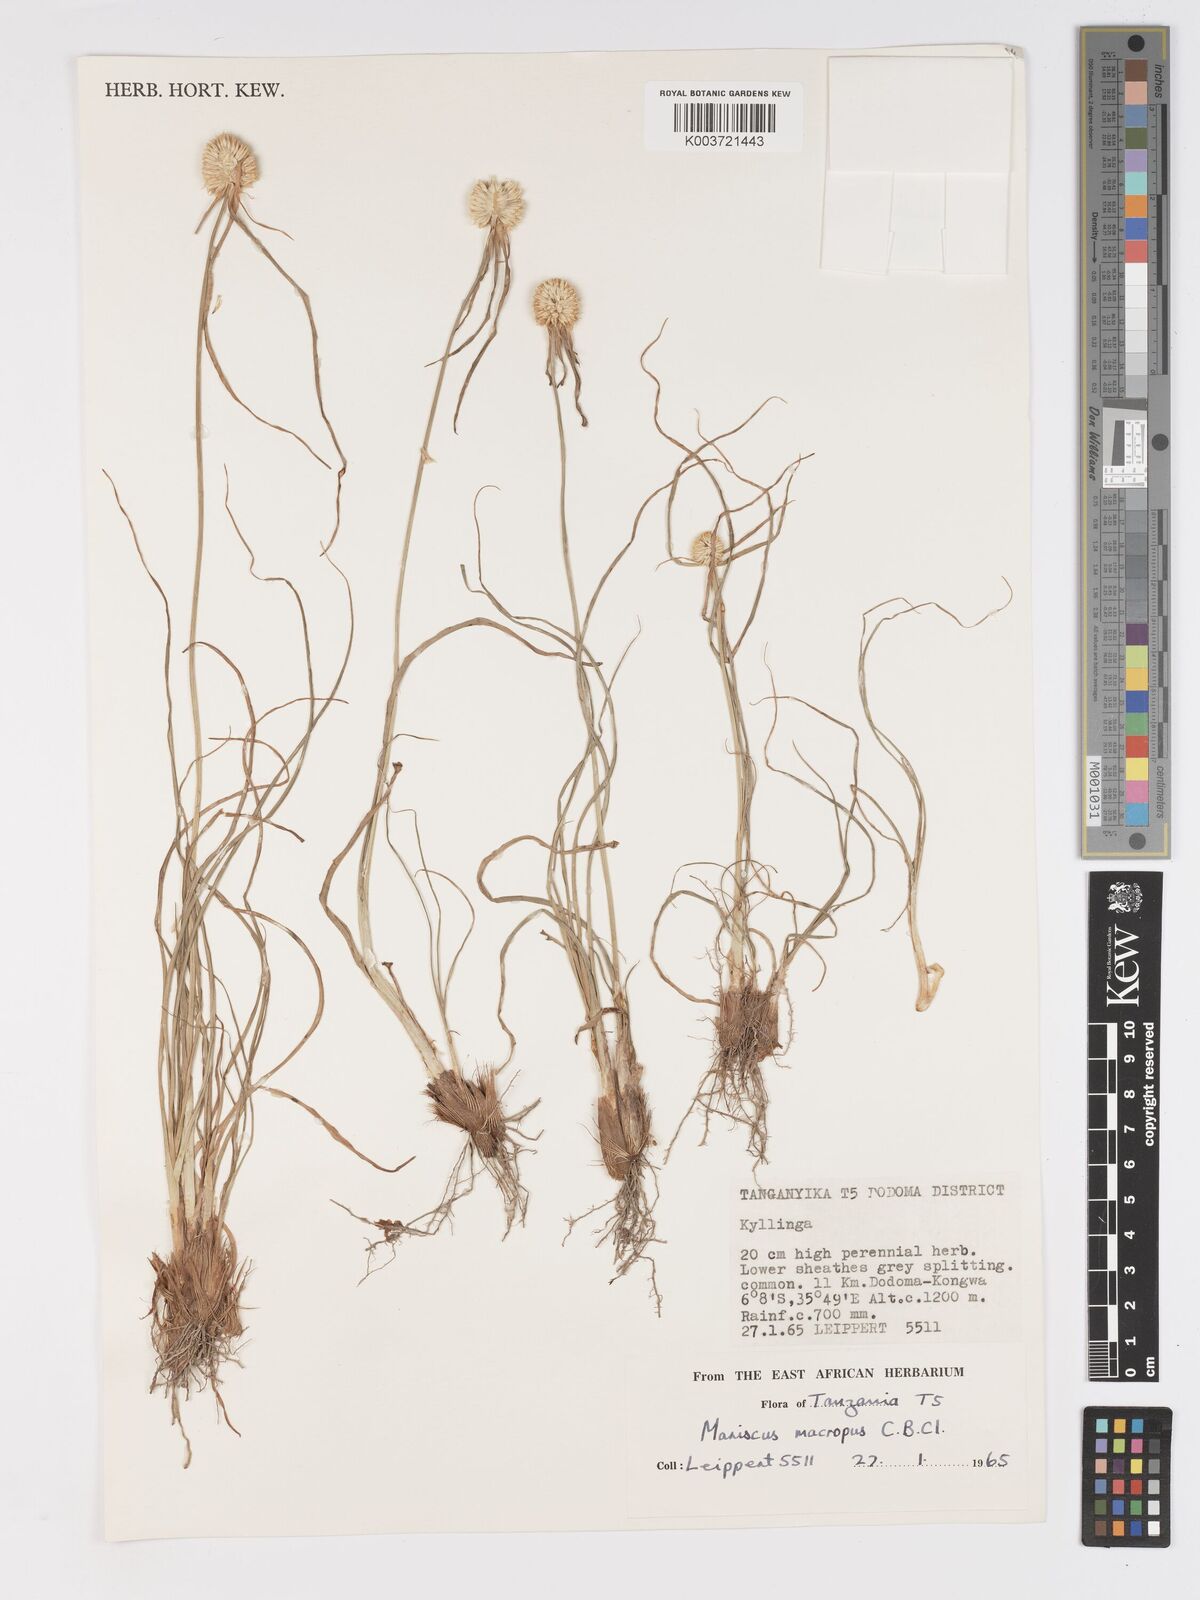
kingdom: Plantae
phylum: Tracheophyta
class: Liliopsida
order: Poales
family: Cyperaceae
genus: Cyperus
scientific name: Cyperus mollipes
